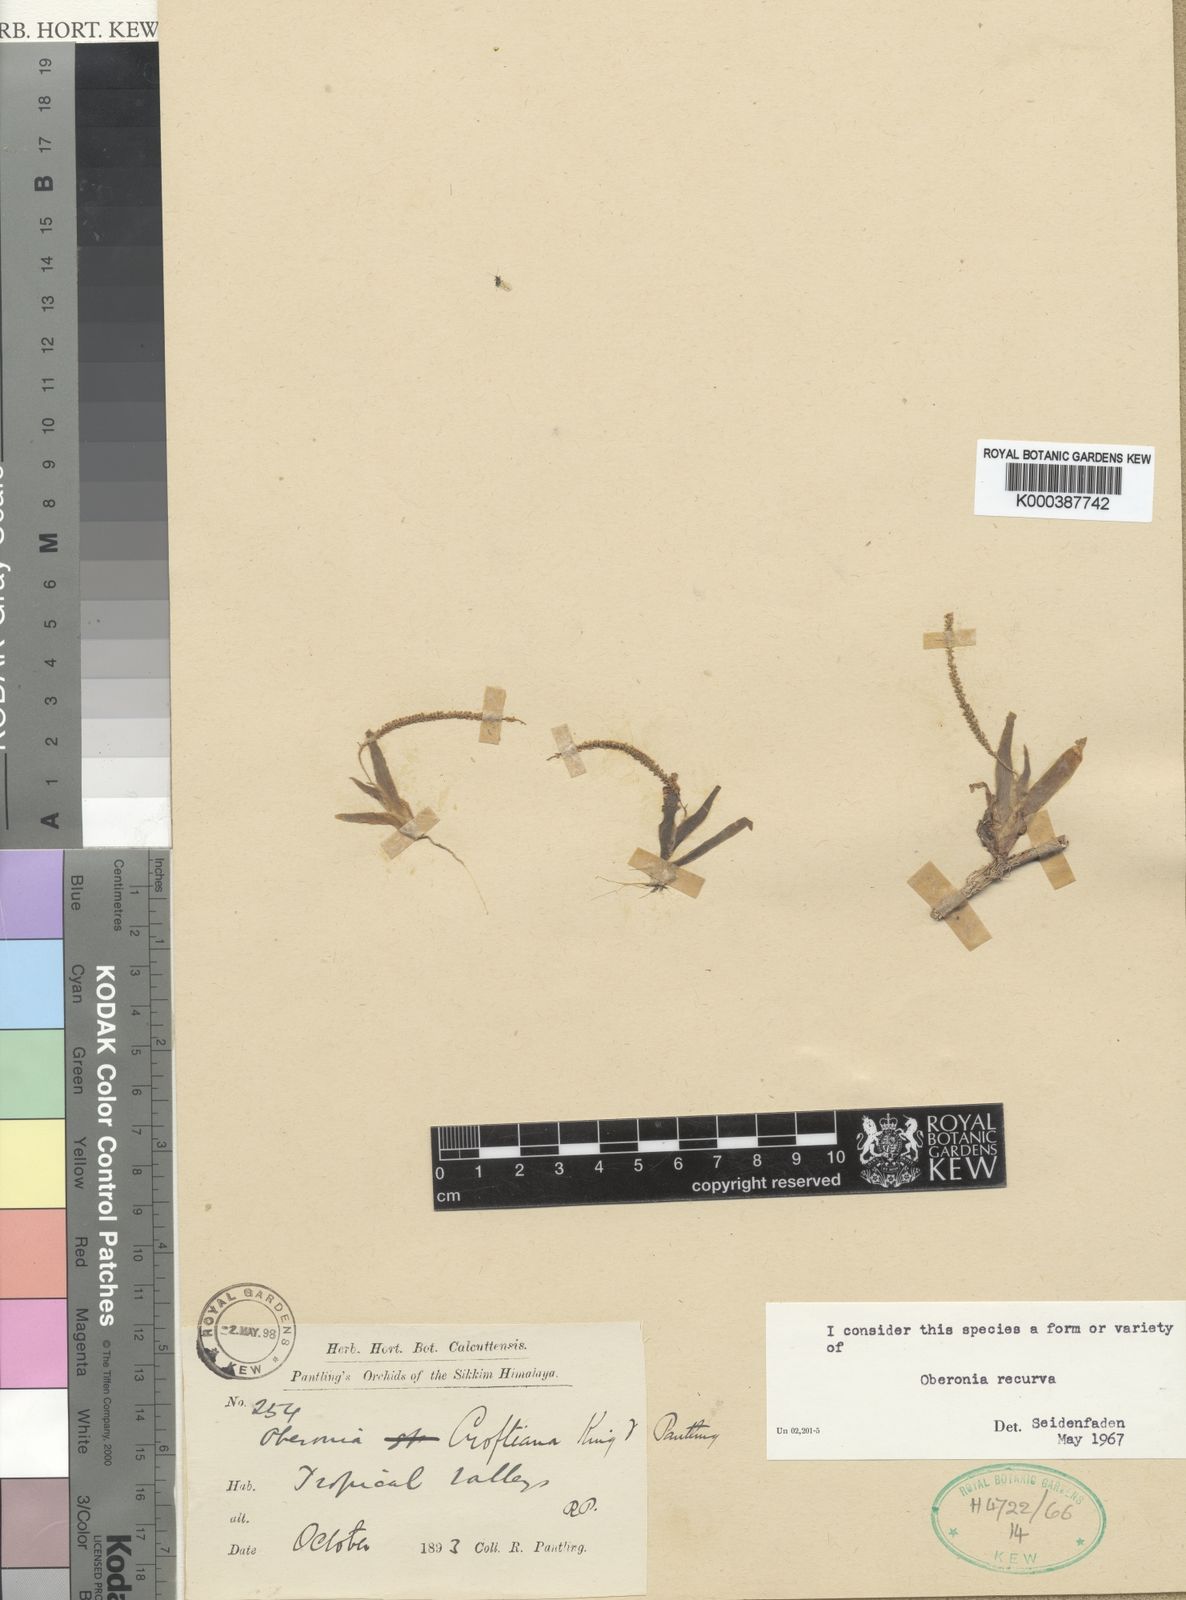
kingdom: Plantae
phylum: Tracheophyta
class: Liliopsida
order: Asparagales
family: Orchidaceae
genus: Oberonia
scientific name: Oberonia brachystachys
